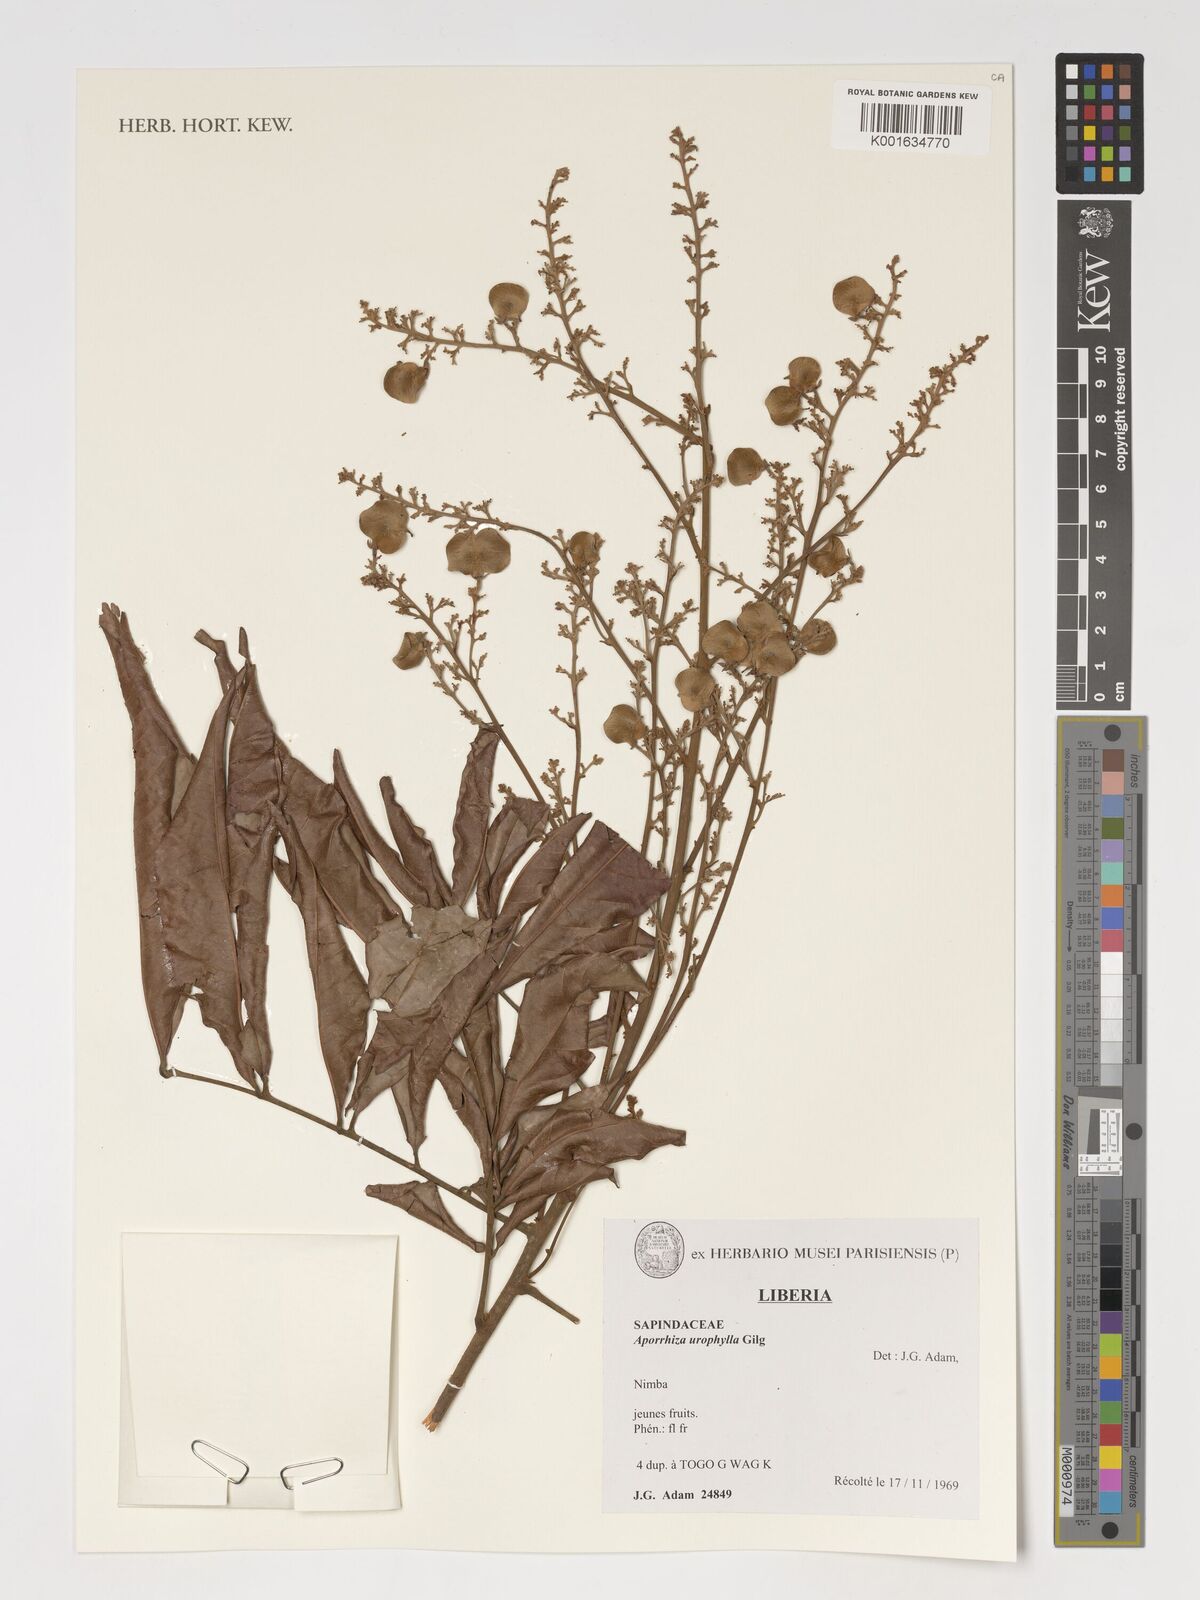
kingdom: Plantae
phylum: Tracheophyta
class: Magnoliopsida
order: Sapindales
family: Sapindaceae
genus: Aporrhiza
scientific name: Aporrhiza urophylla
